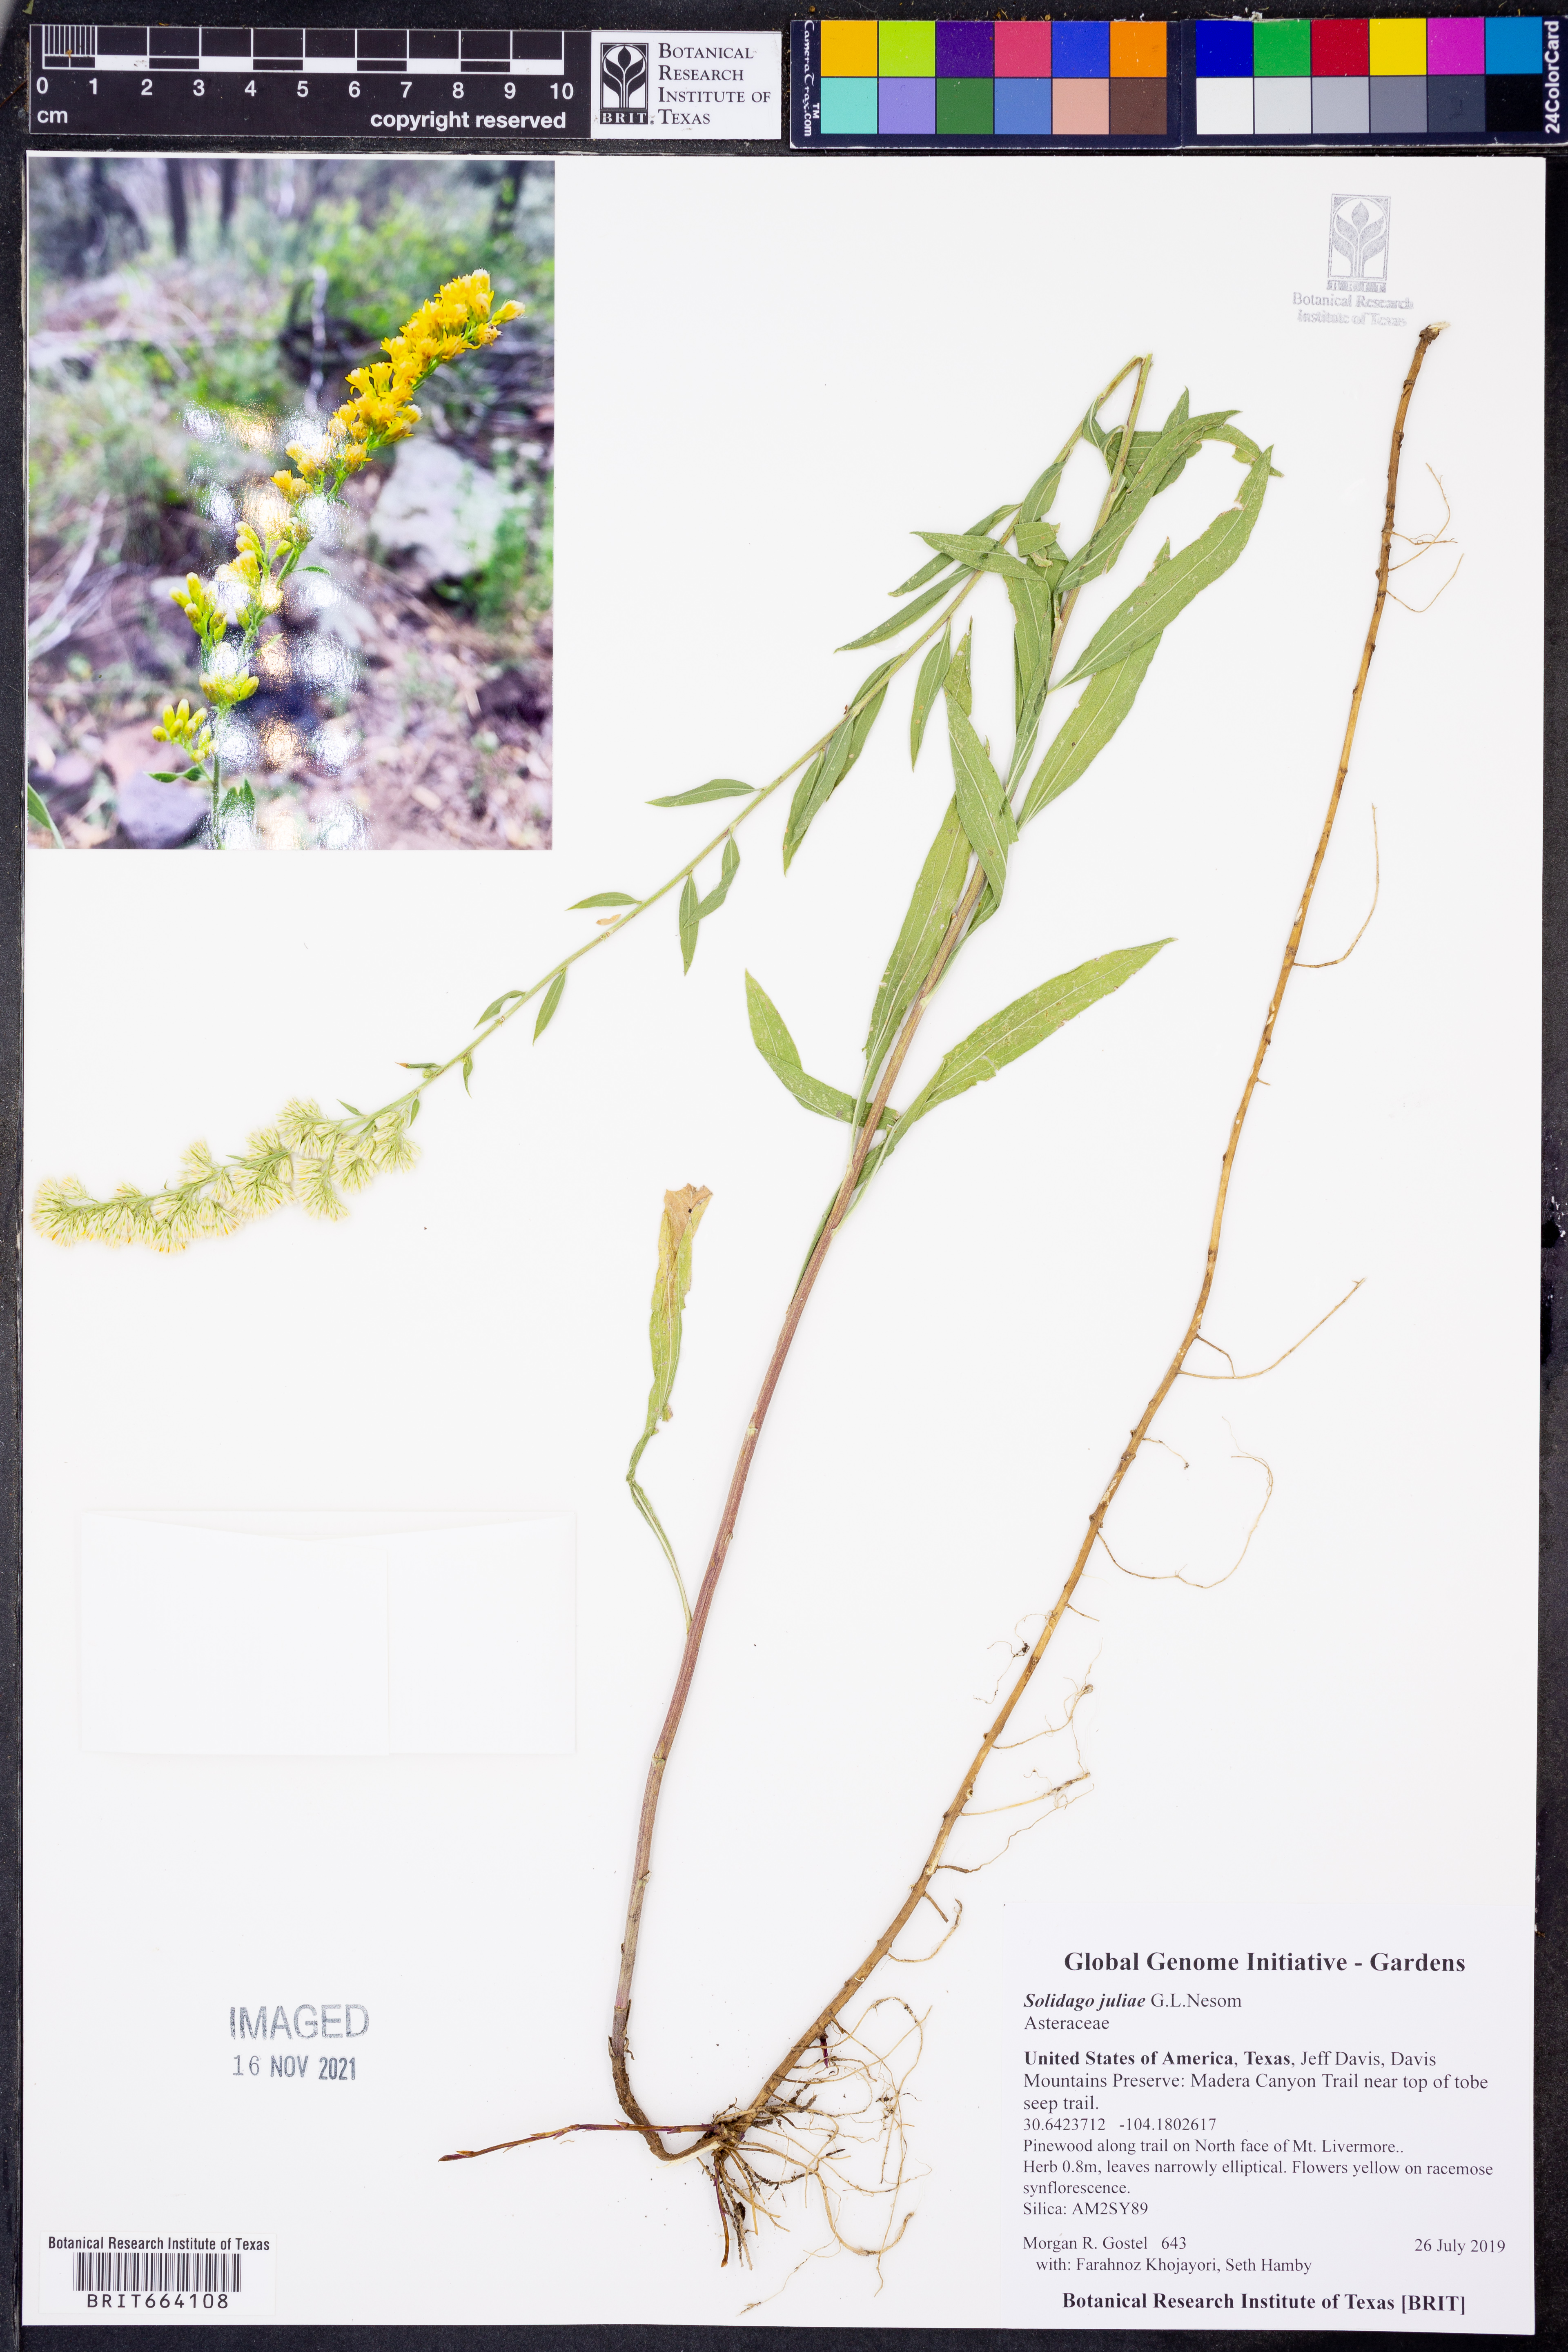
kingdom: Plantae
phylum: Tracheophyta
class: Magnoliopsida
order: Asterales
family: Asteraceae
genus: Solidago
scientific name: Solidago juliae
